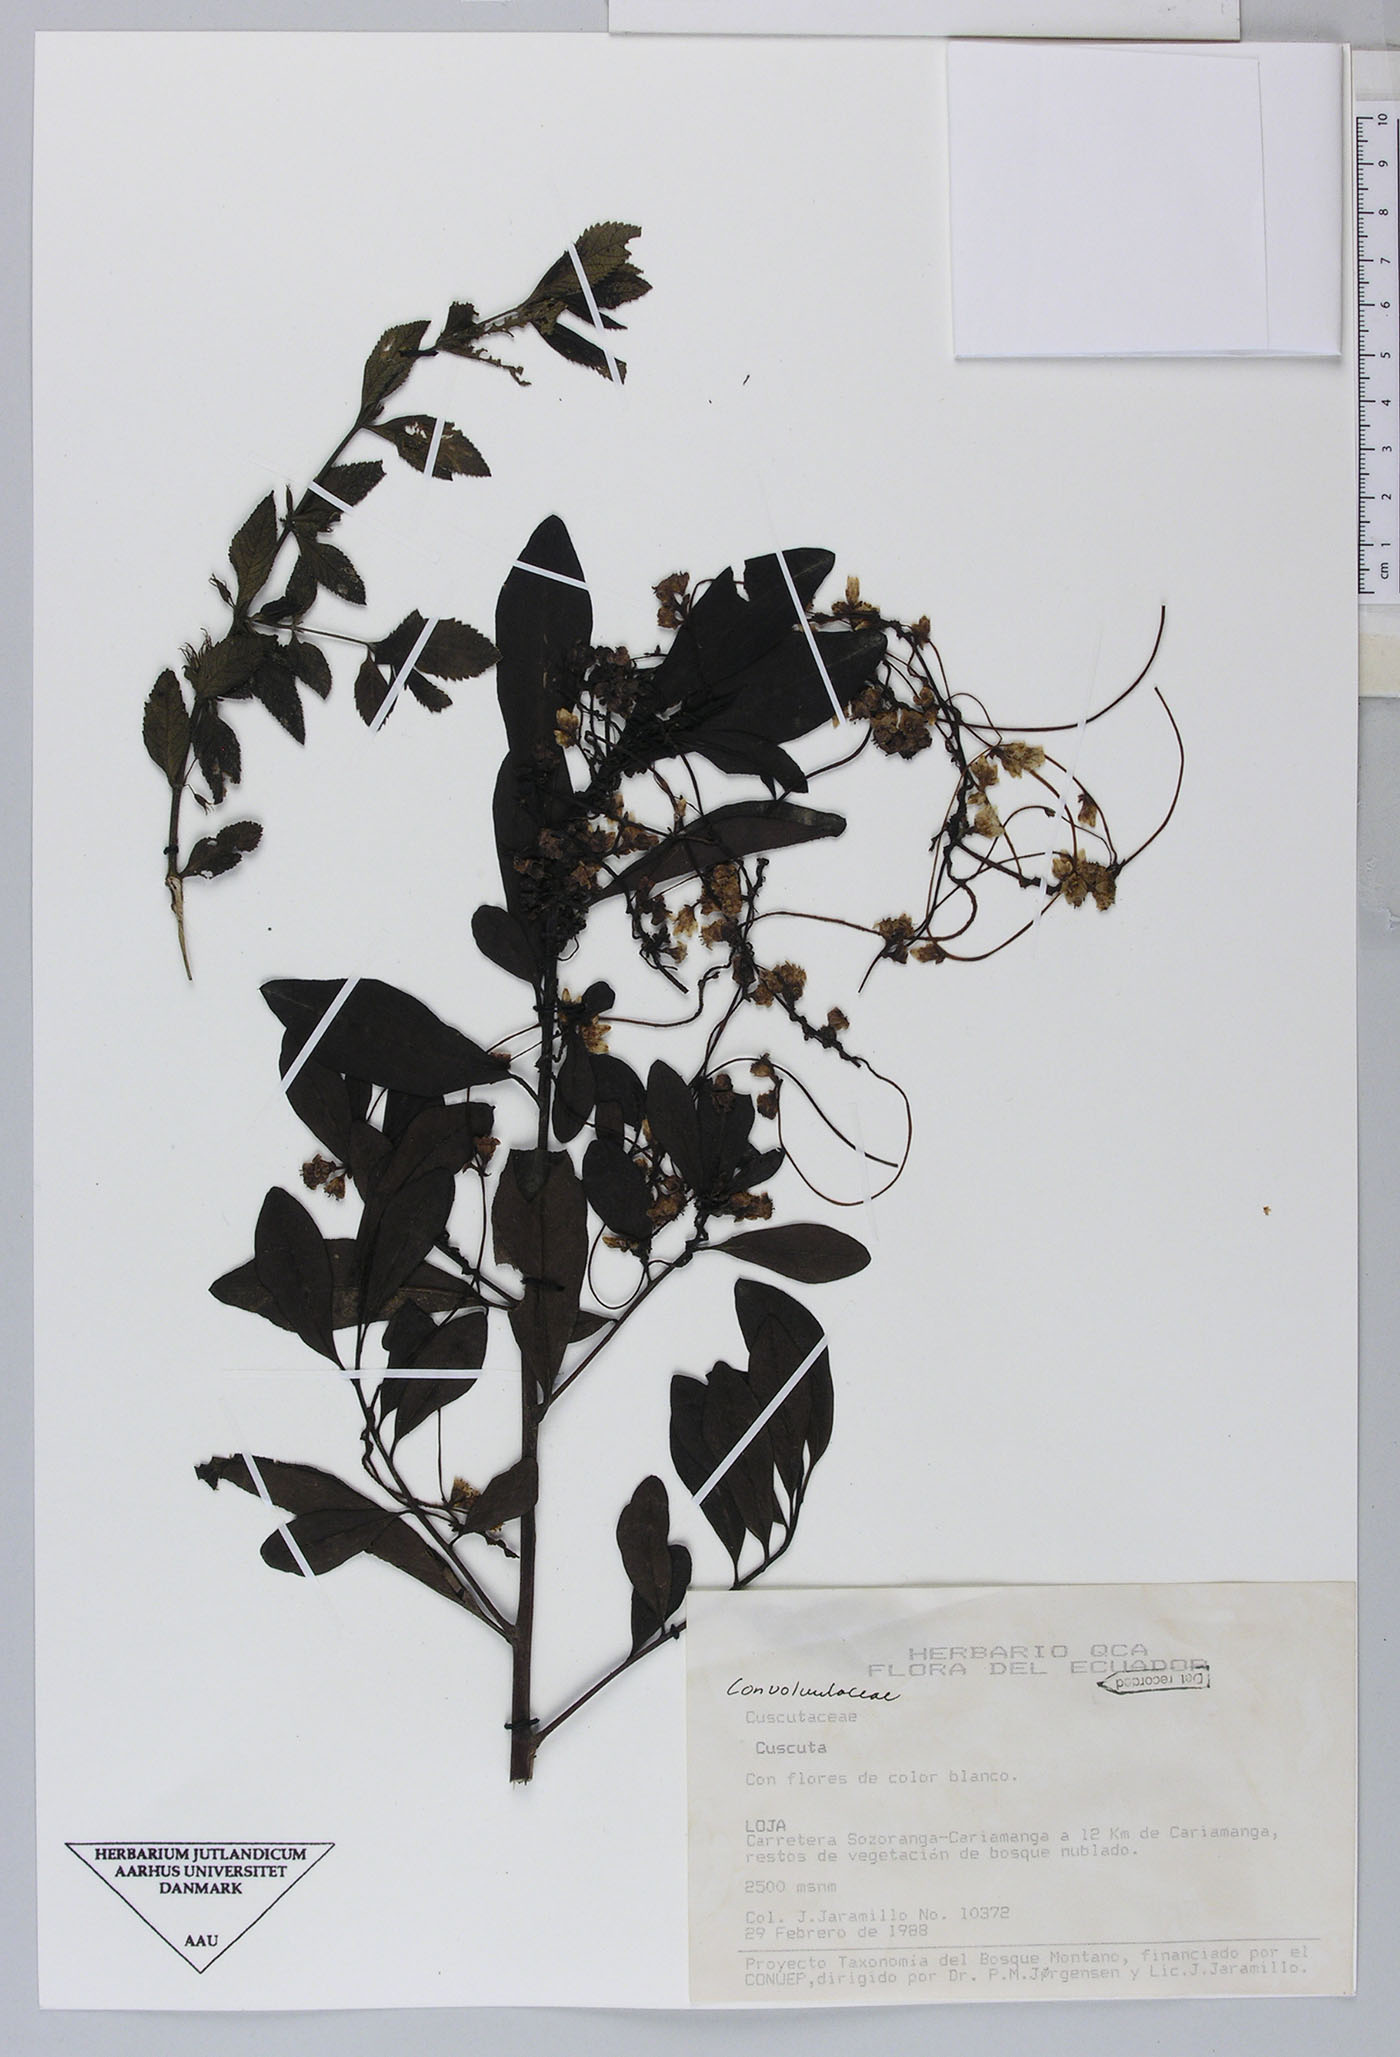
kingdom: Plantae
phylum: Tracheophyta
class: Magnoliopsida
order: Solanales
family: Convolvulaceae
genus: Cuscuta
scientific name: Cuscuta odorata
